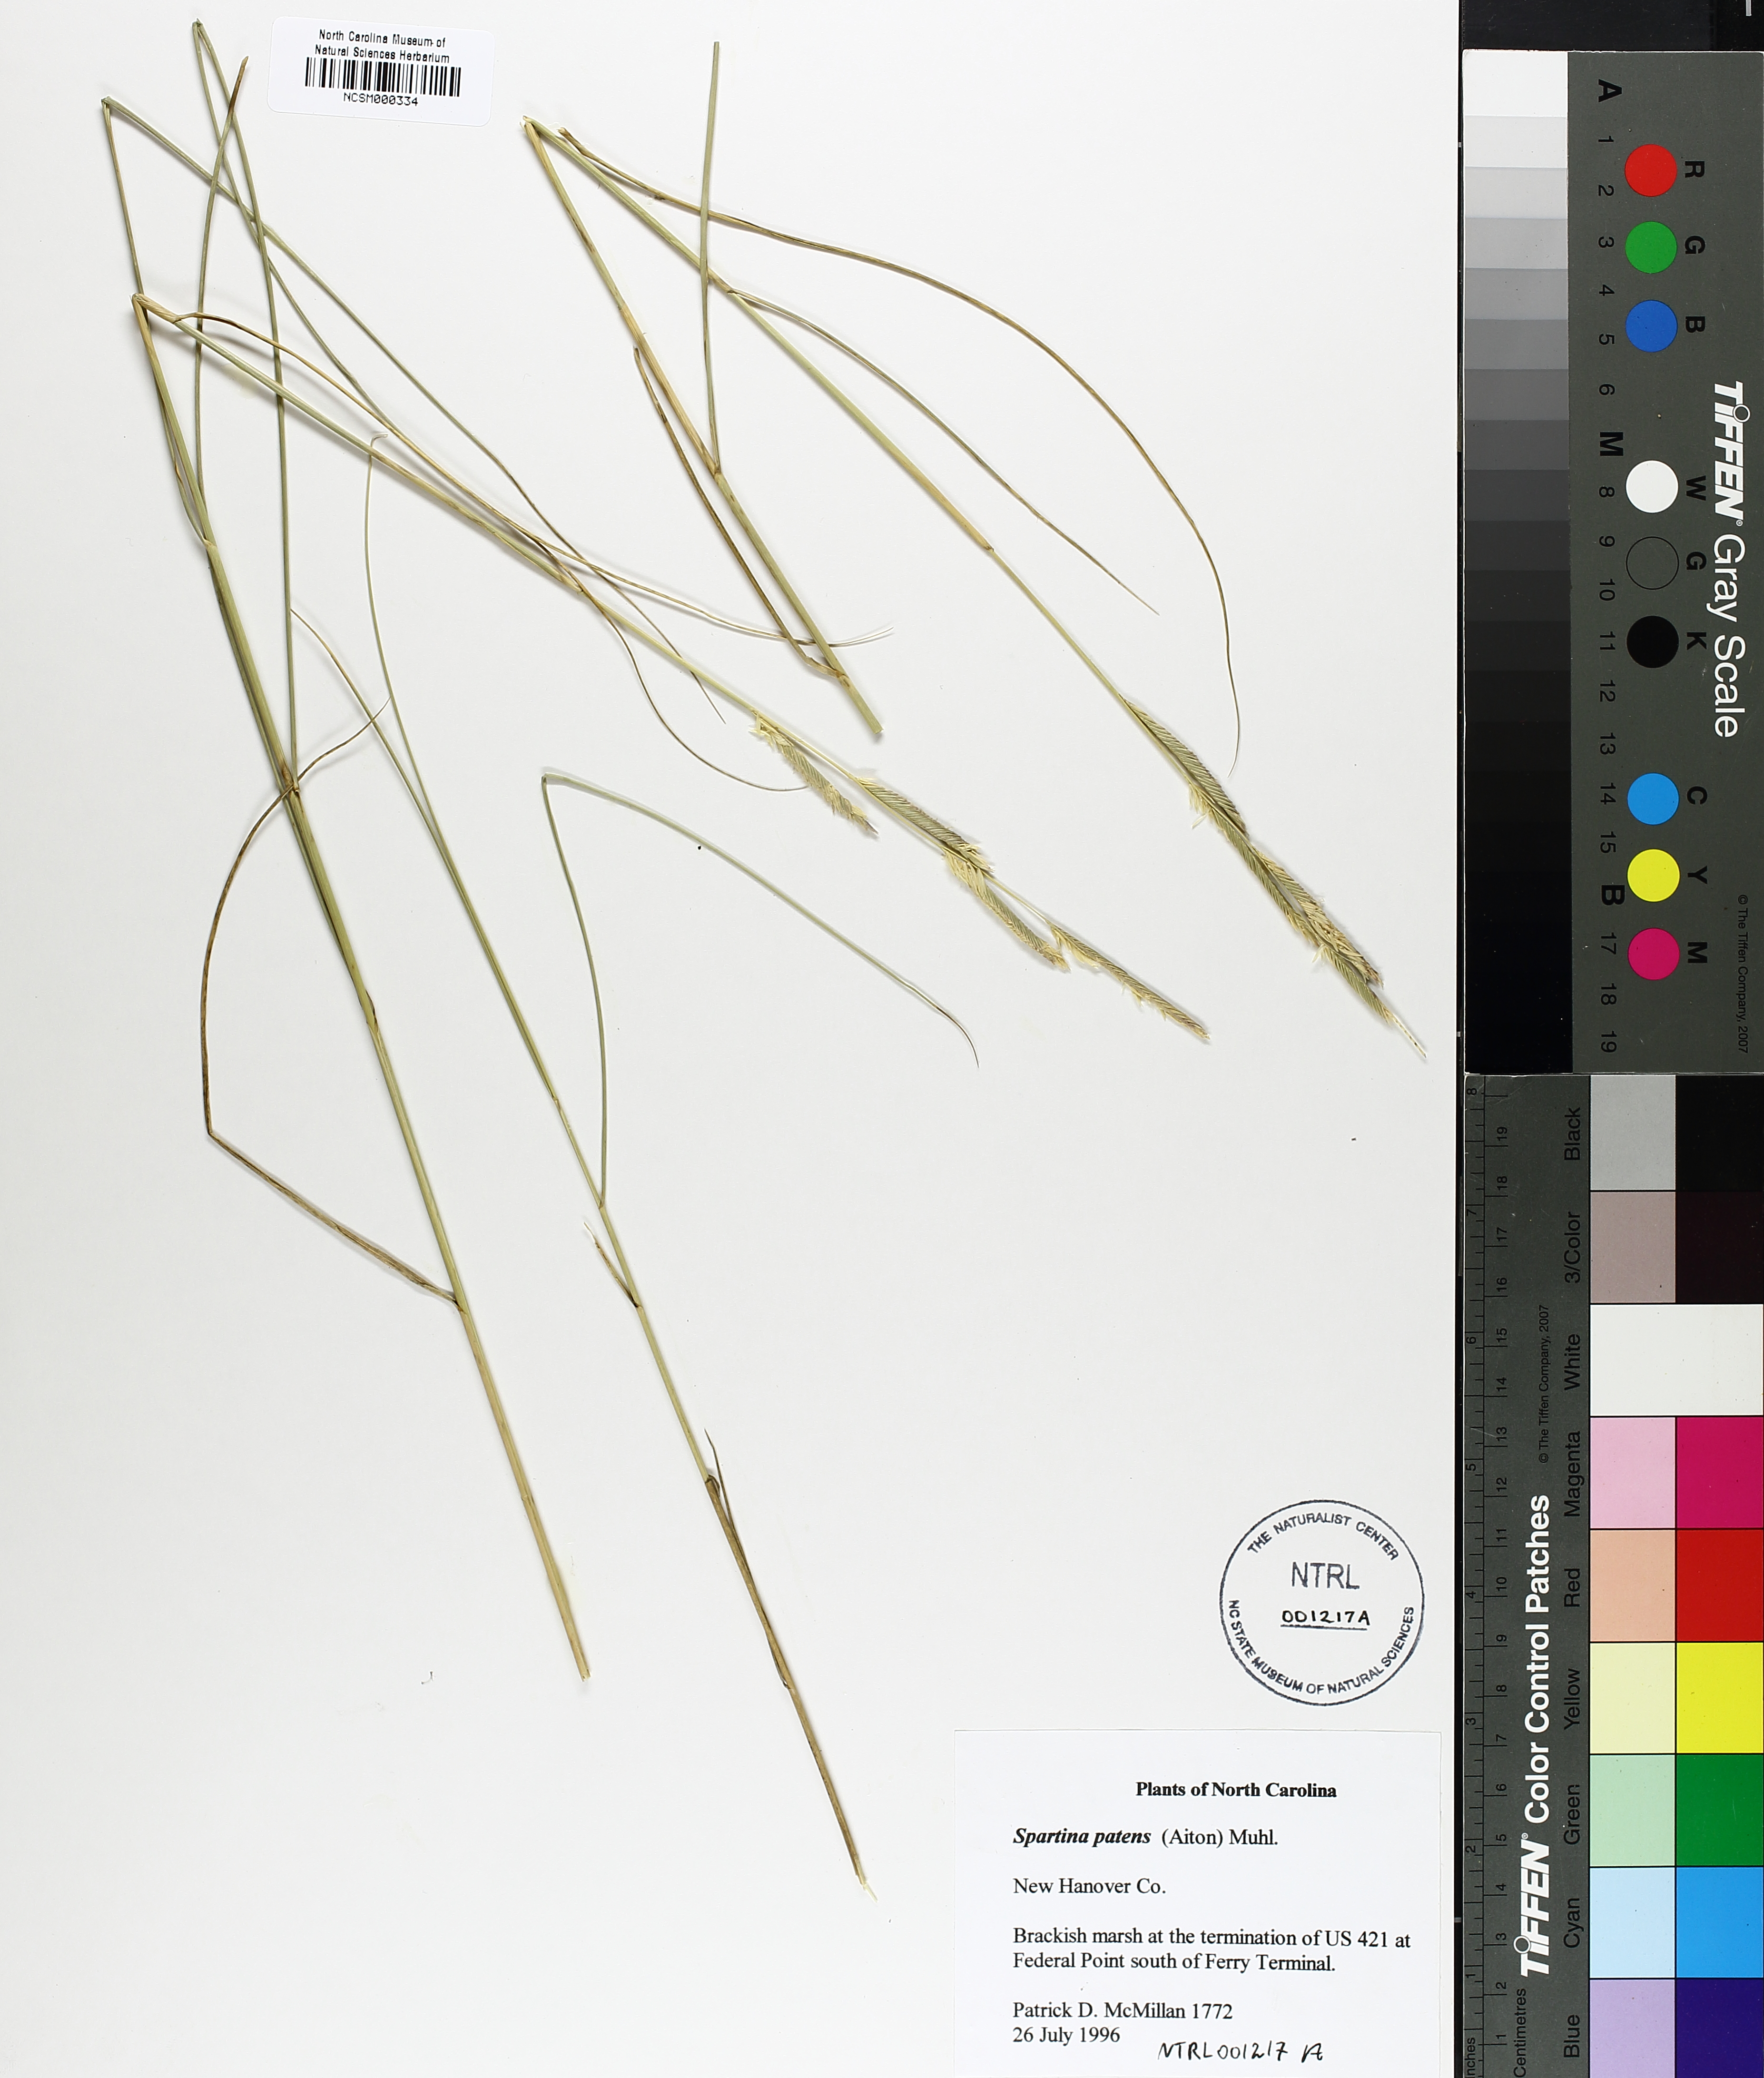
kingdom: Plantae
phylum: Tracheophyta
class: Liliopsida
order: Poales
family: Poaceae
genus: Sporobolus
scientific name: Sporobolus pumilus
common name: Highwater grass
